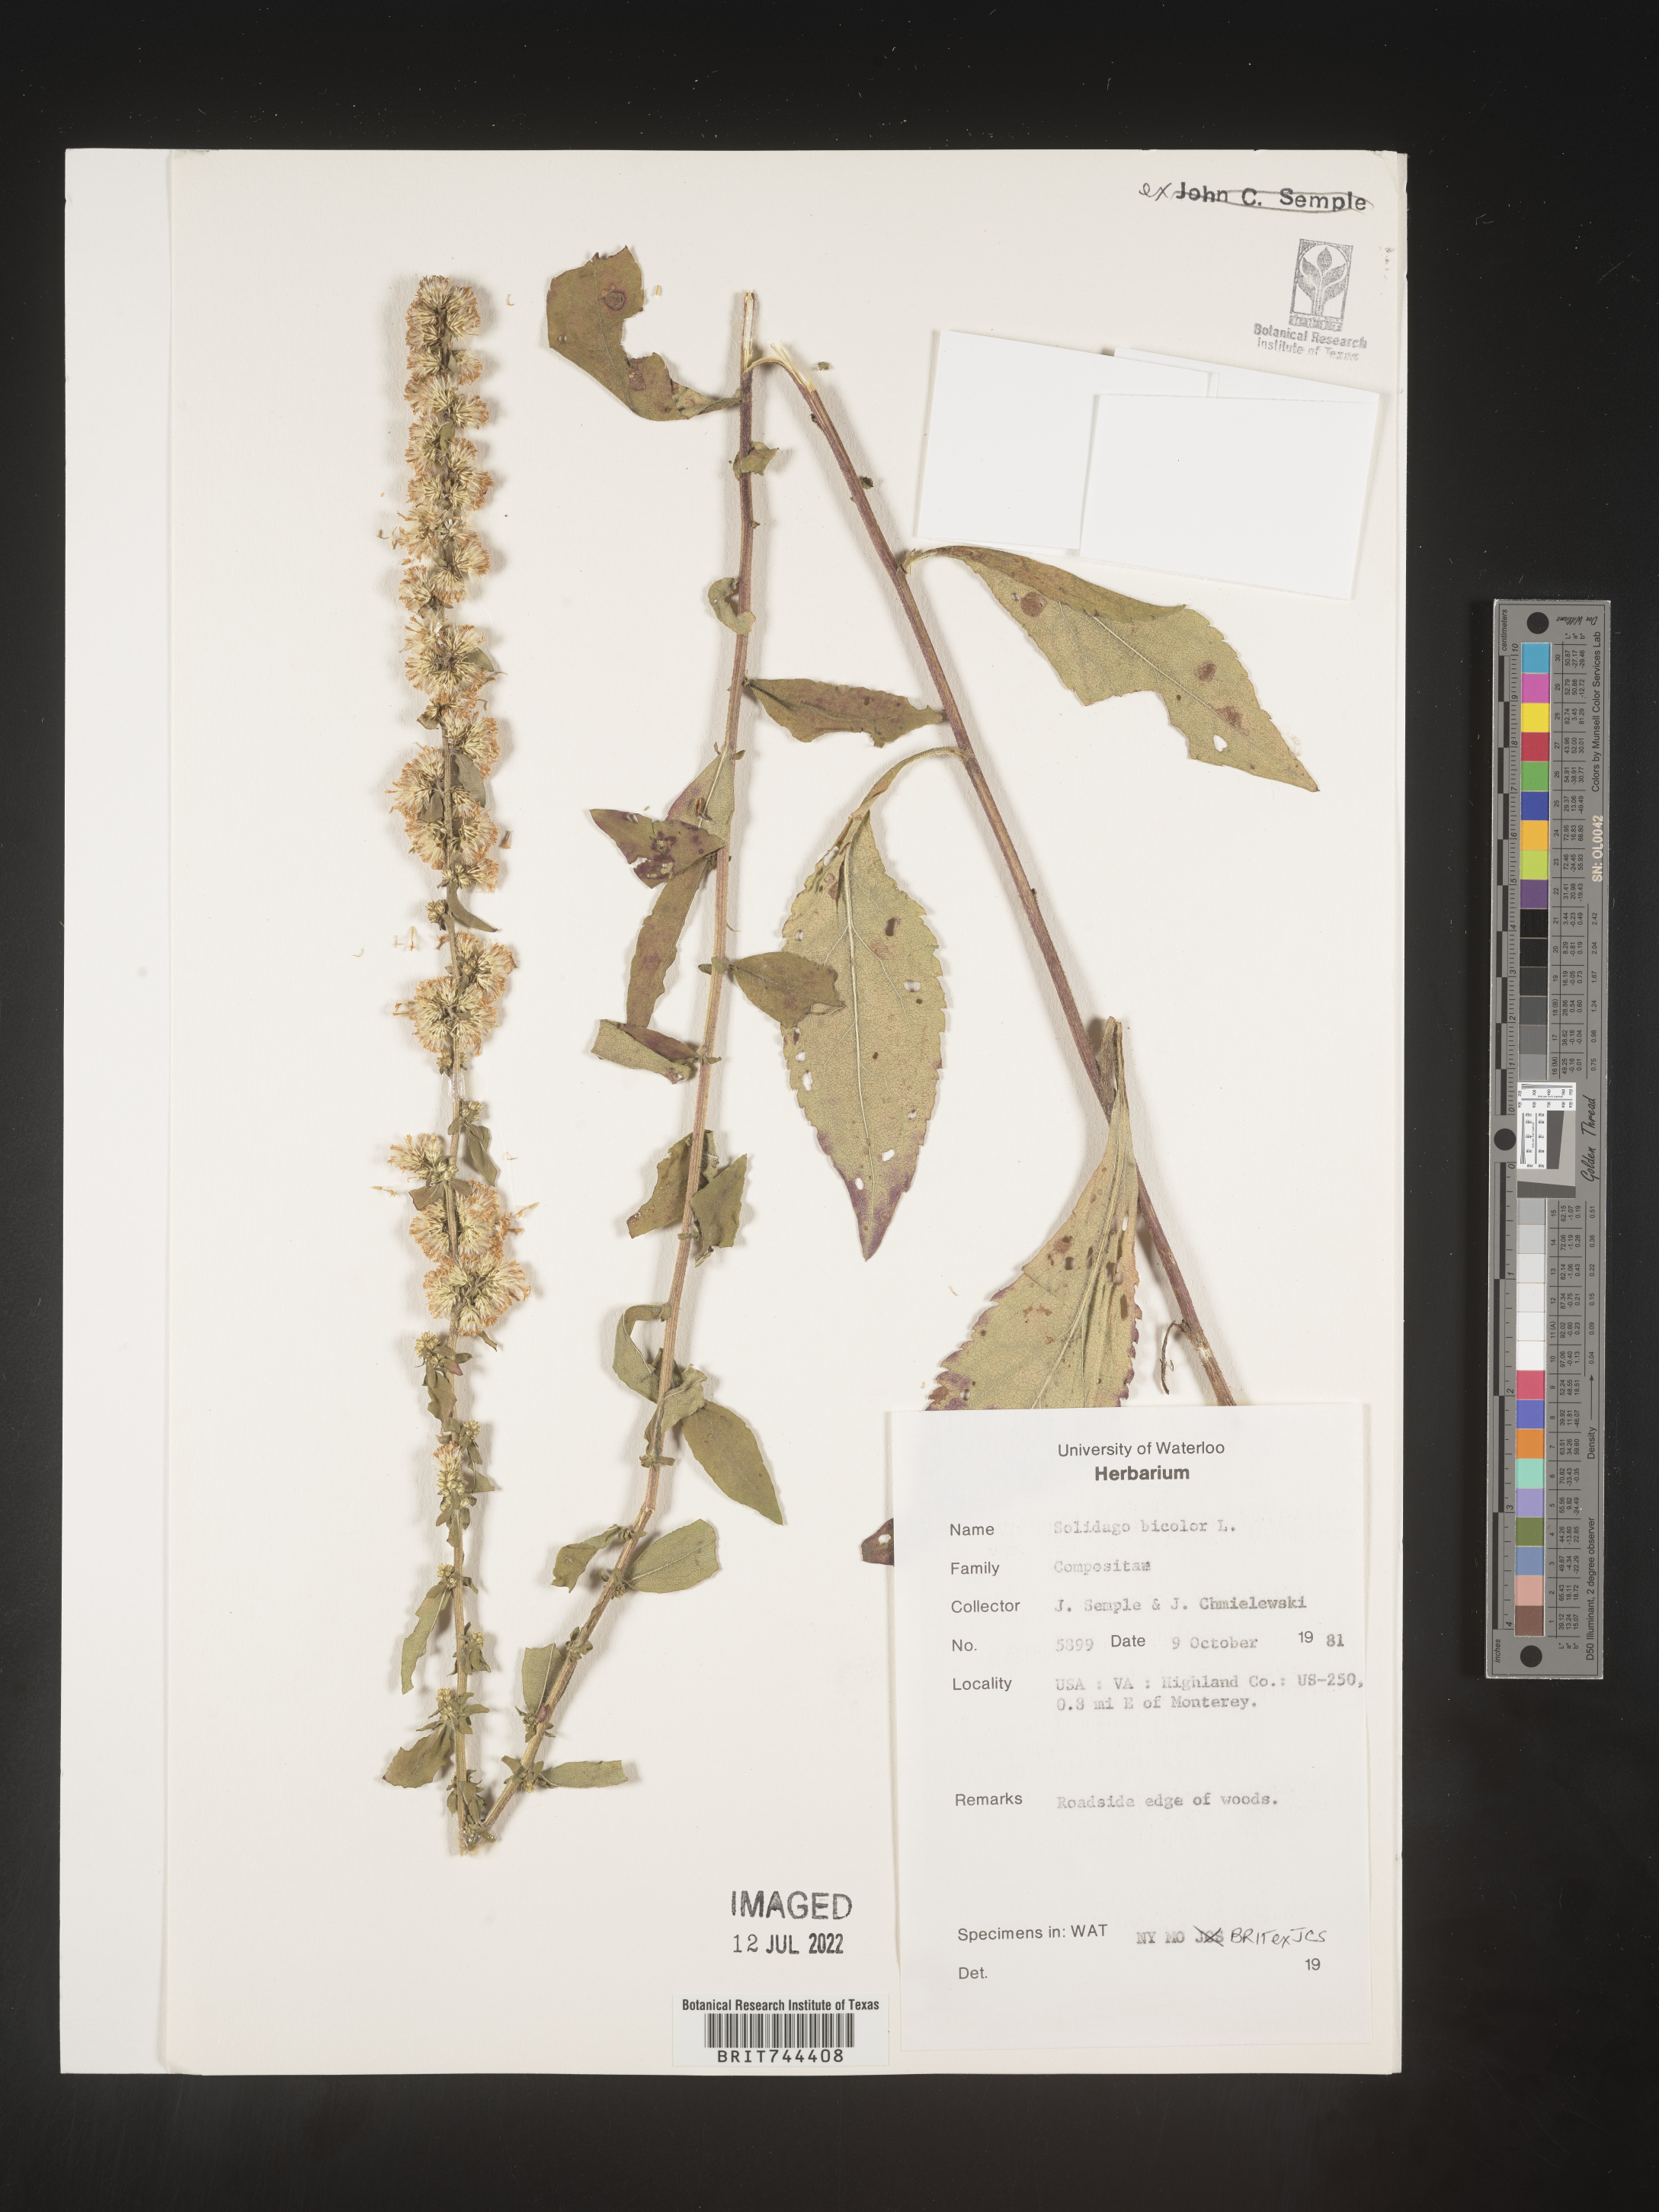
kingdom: Plantae
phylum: Tracheophyta
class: Magnoliopsida
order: Asterales
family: Asteraceae
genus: Solidago
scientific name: Solidago bicolor
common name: Silverrod
